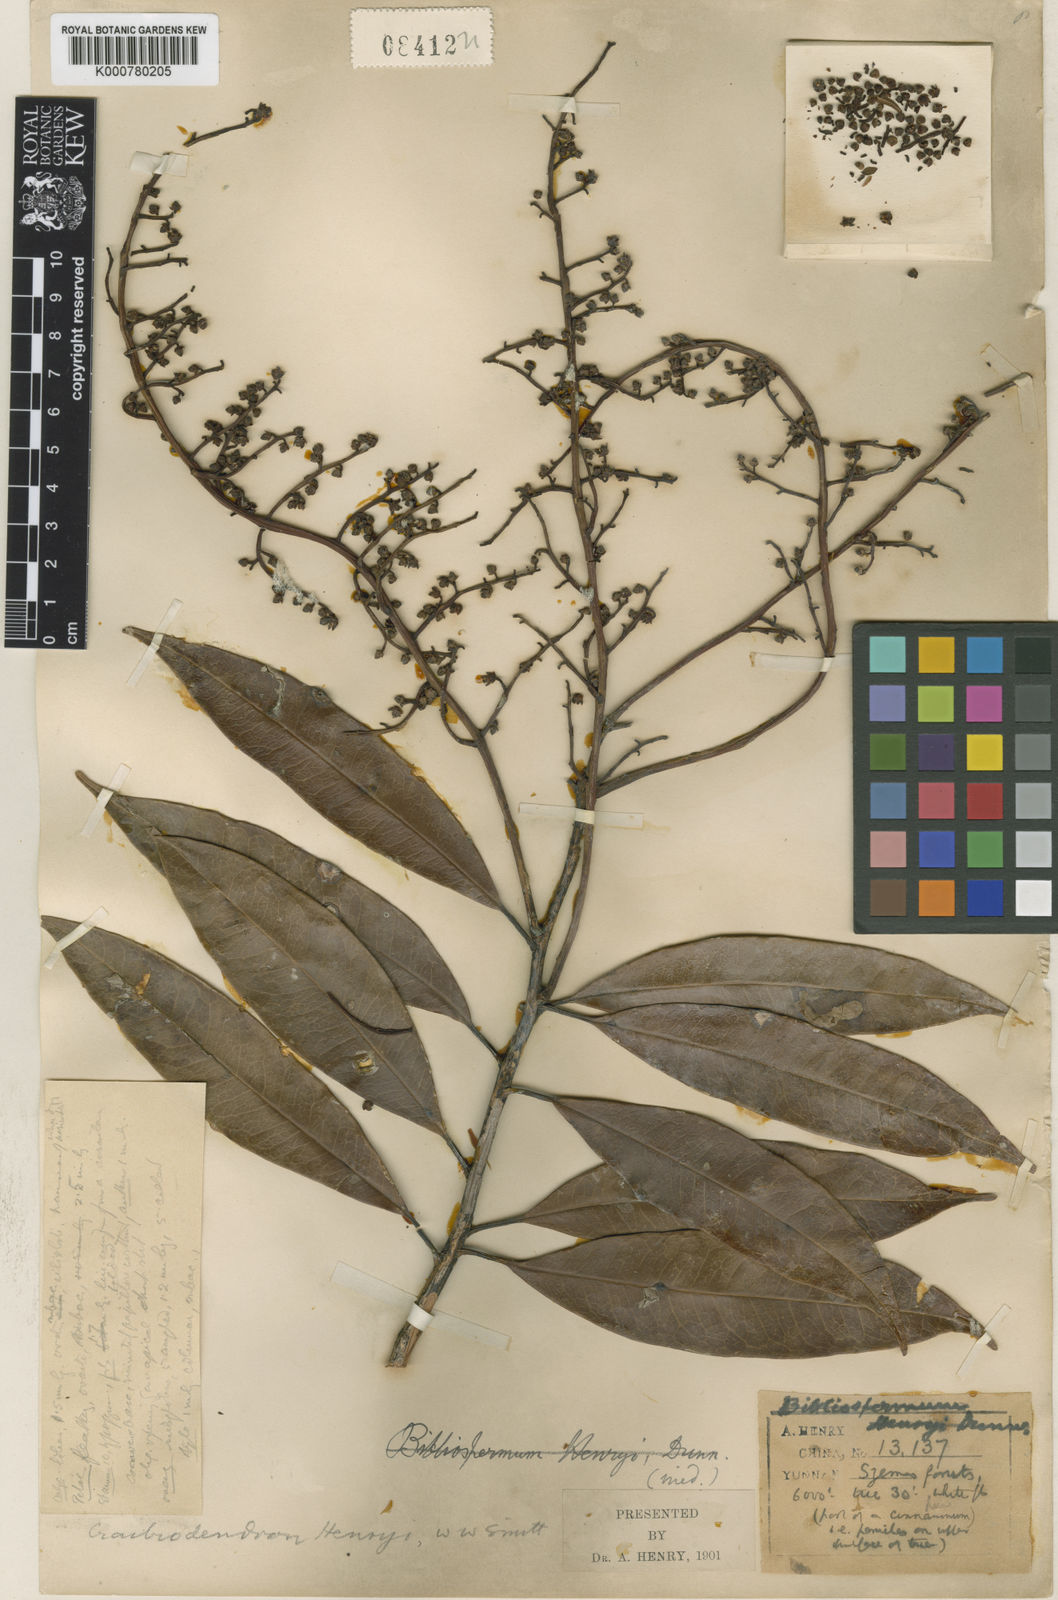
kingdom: Plantae
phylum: Tracheophyta
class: Magnoliopsida
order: Ericales
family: Ericaceae
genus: Craibiodendron
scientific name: Craibiodendron henryi
